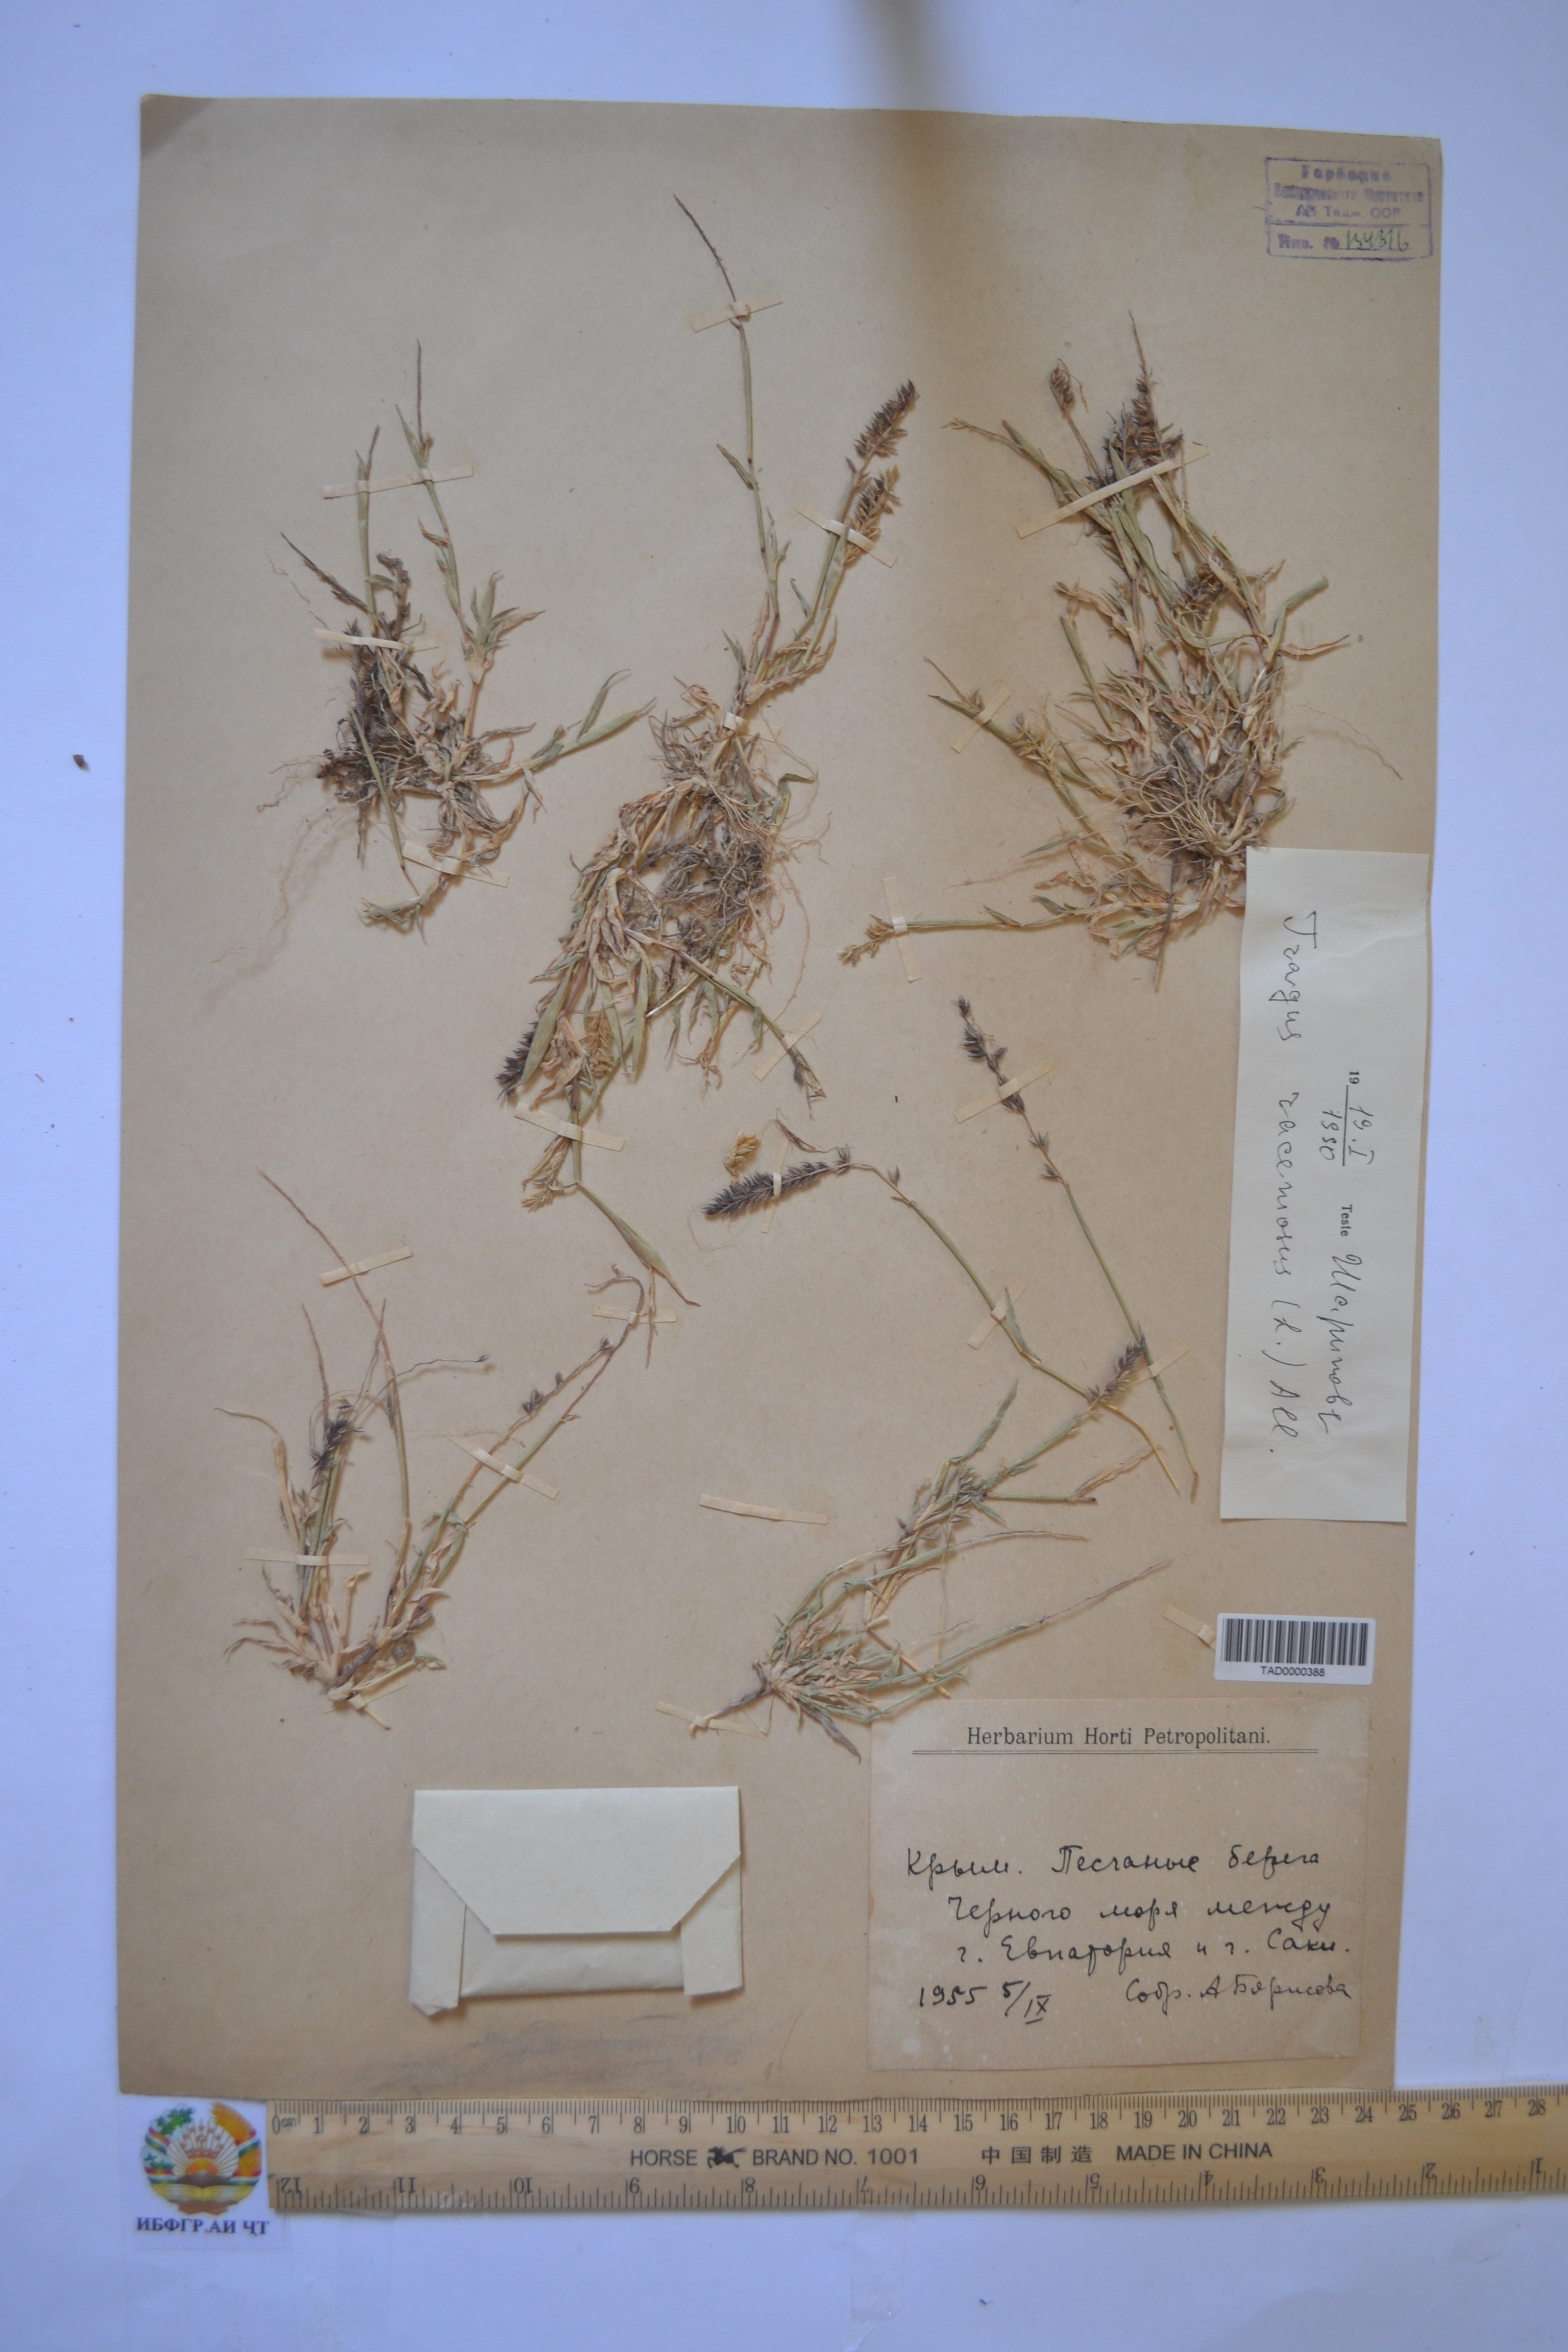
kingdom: Plantae
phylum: Tracheophyta
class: Liliopsida
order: Poales
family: Poaceae
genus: Tragus
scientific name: Tragus racemosus
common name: European bur-grass
